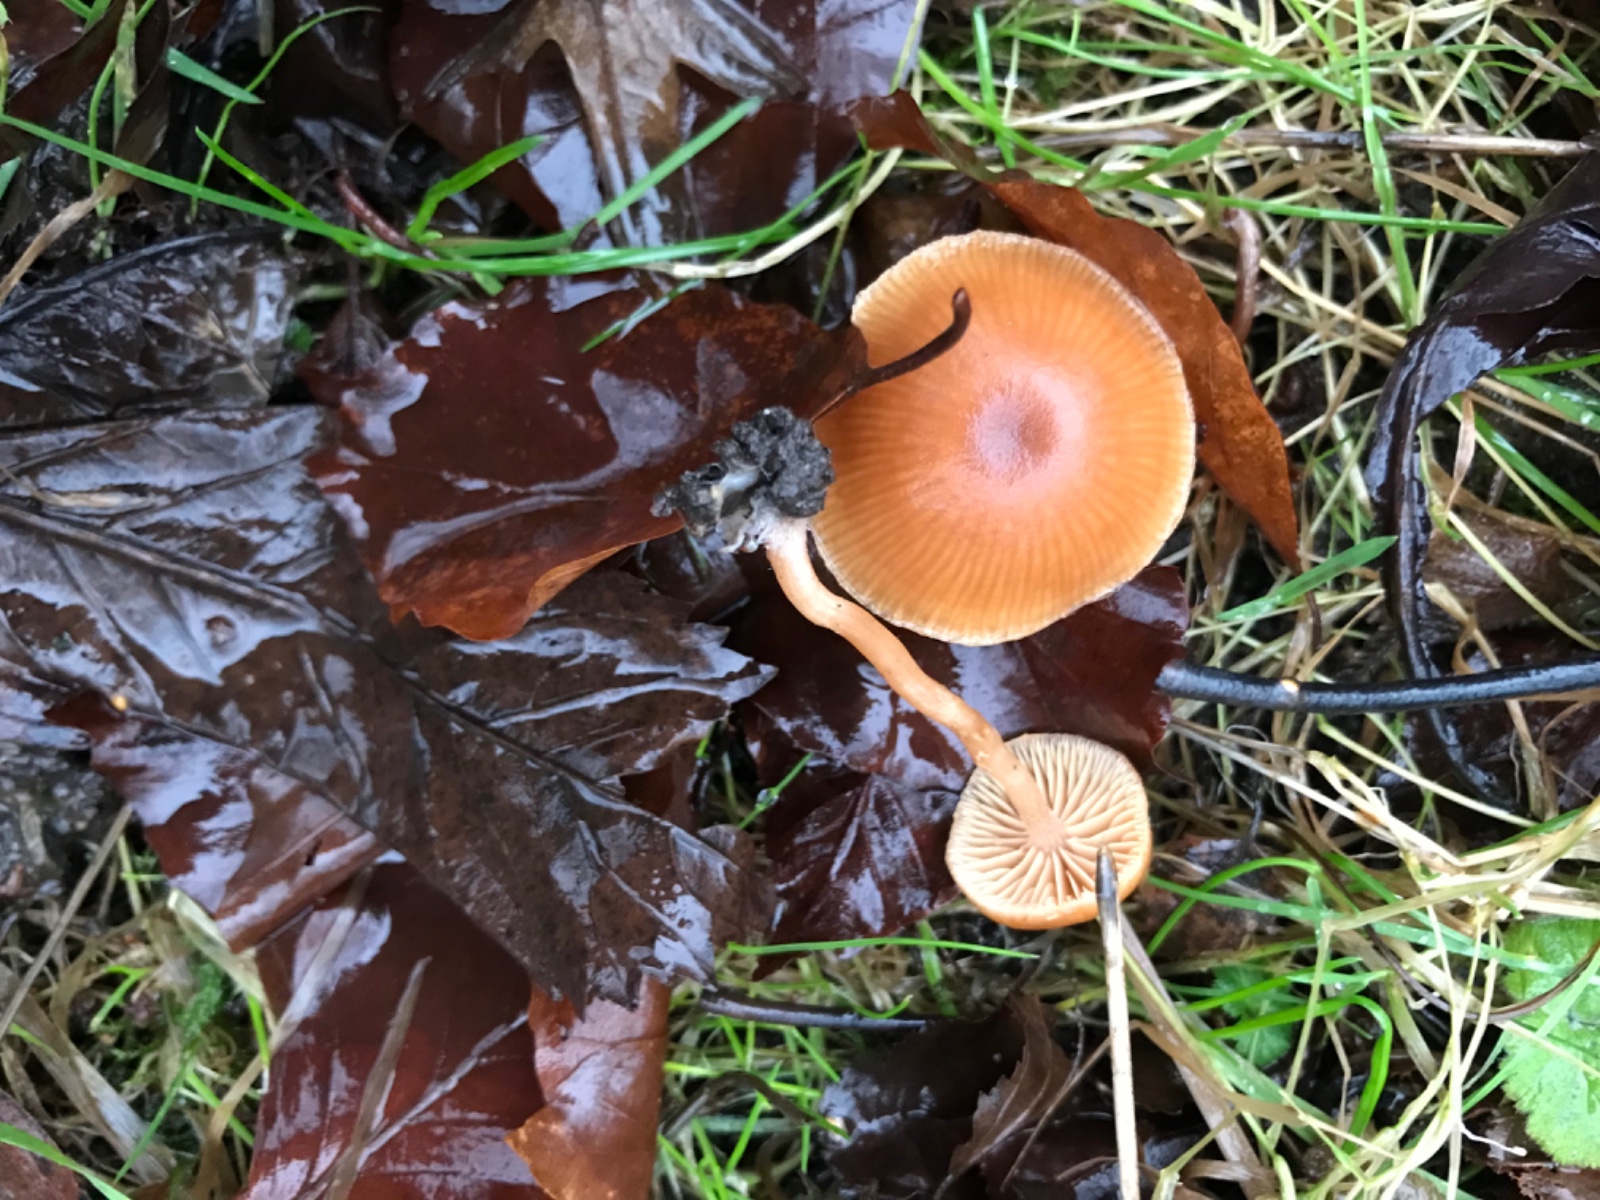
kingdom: Fungi
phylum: Basidiomycota
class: Agaricomycetes
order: Agaricales
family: Tubariaceae
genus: Tubaria
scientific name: Tubaria furfuracea
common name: kliddet fnughat
